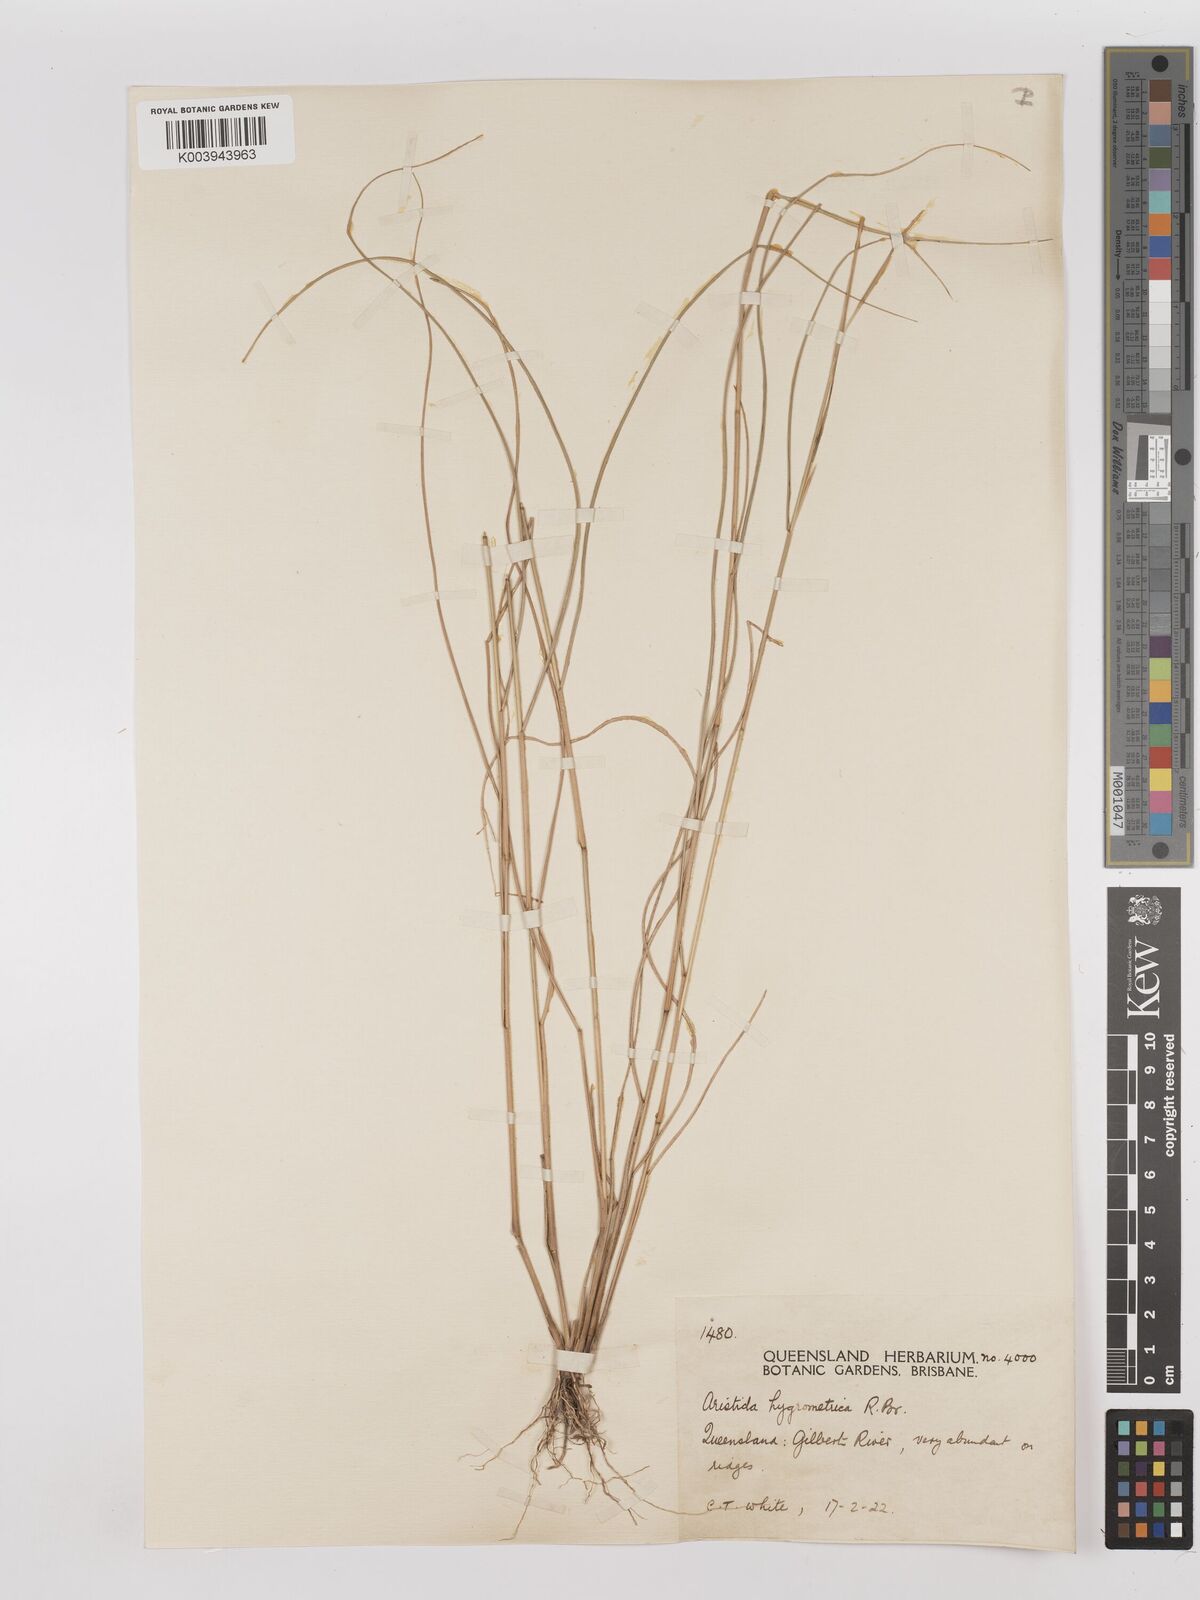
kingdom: Plantae
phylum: Tracheophyta
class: Liliopsida
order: Poales
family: Poaceae
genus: Aristida
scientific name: Aristida hygrometrica
